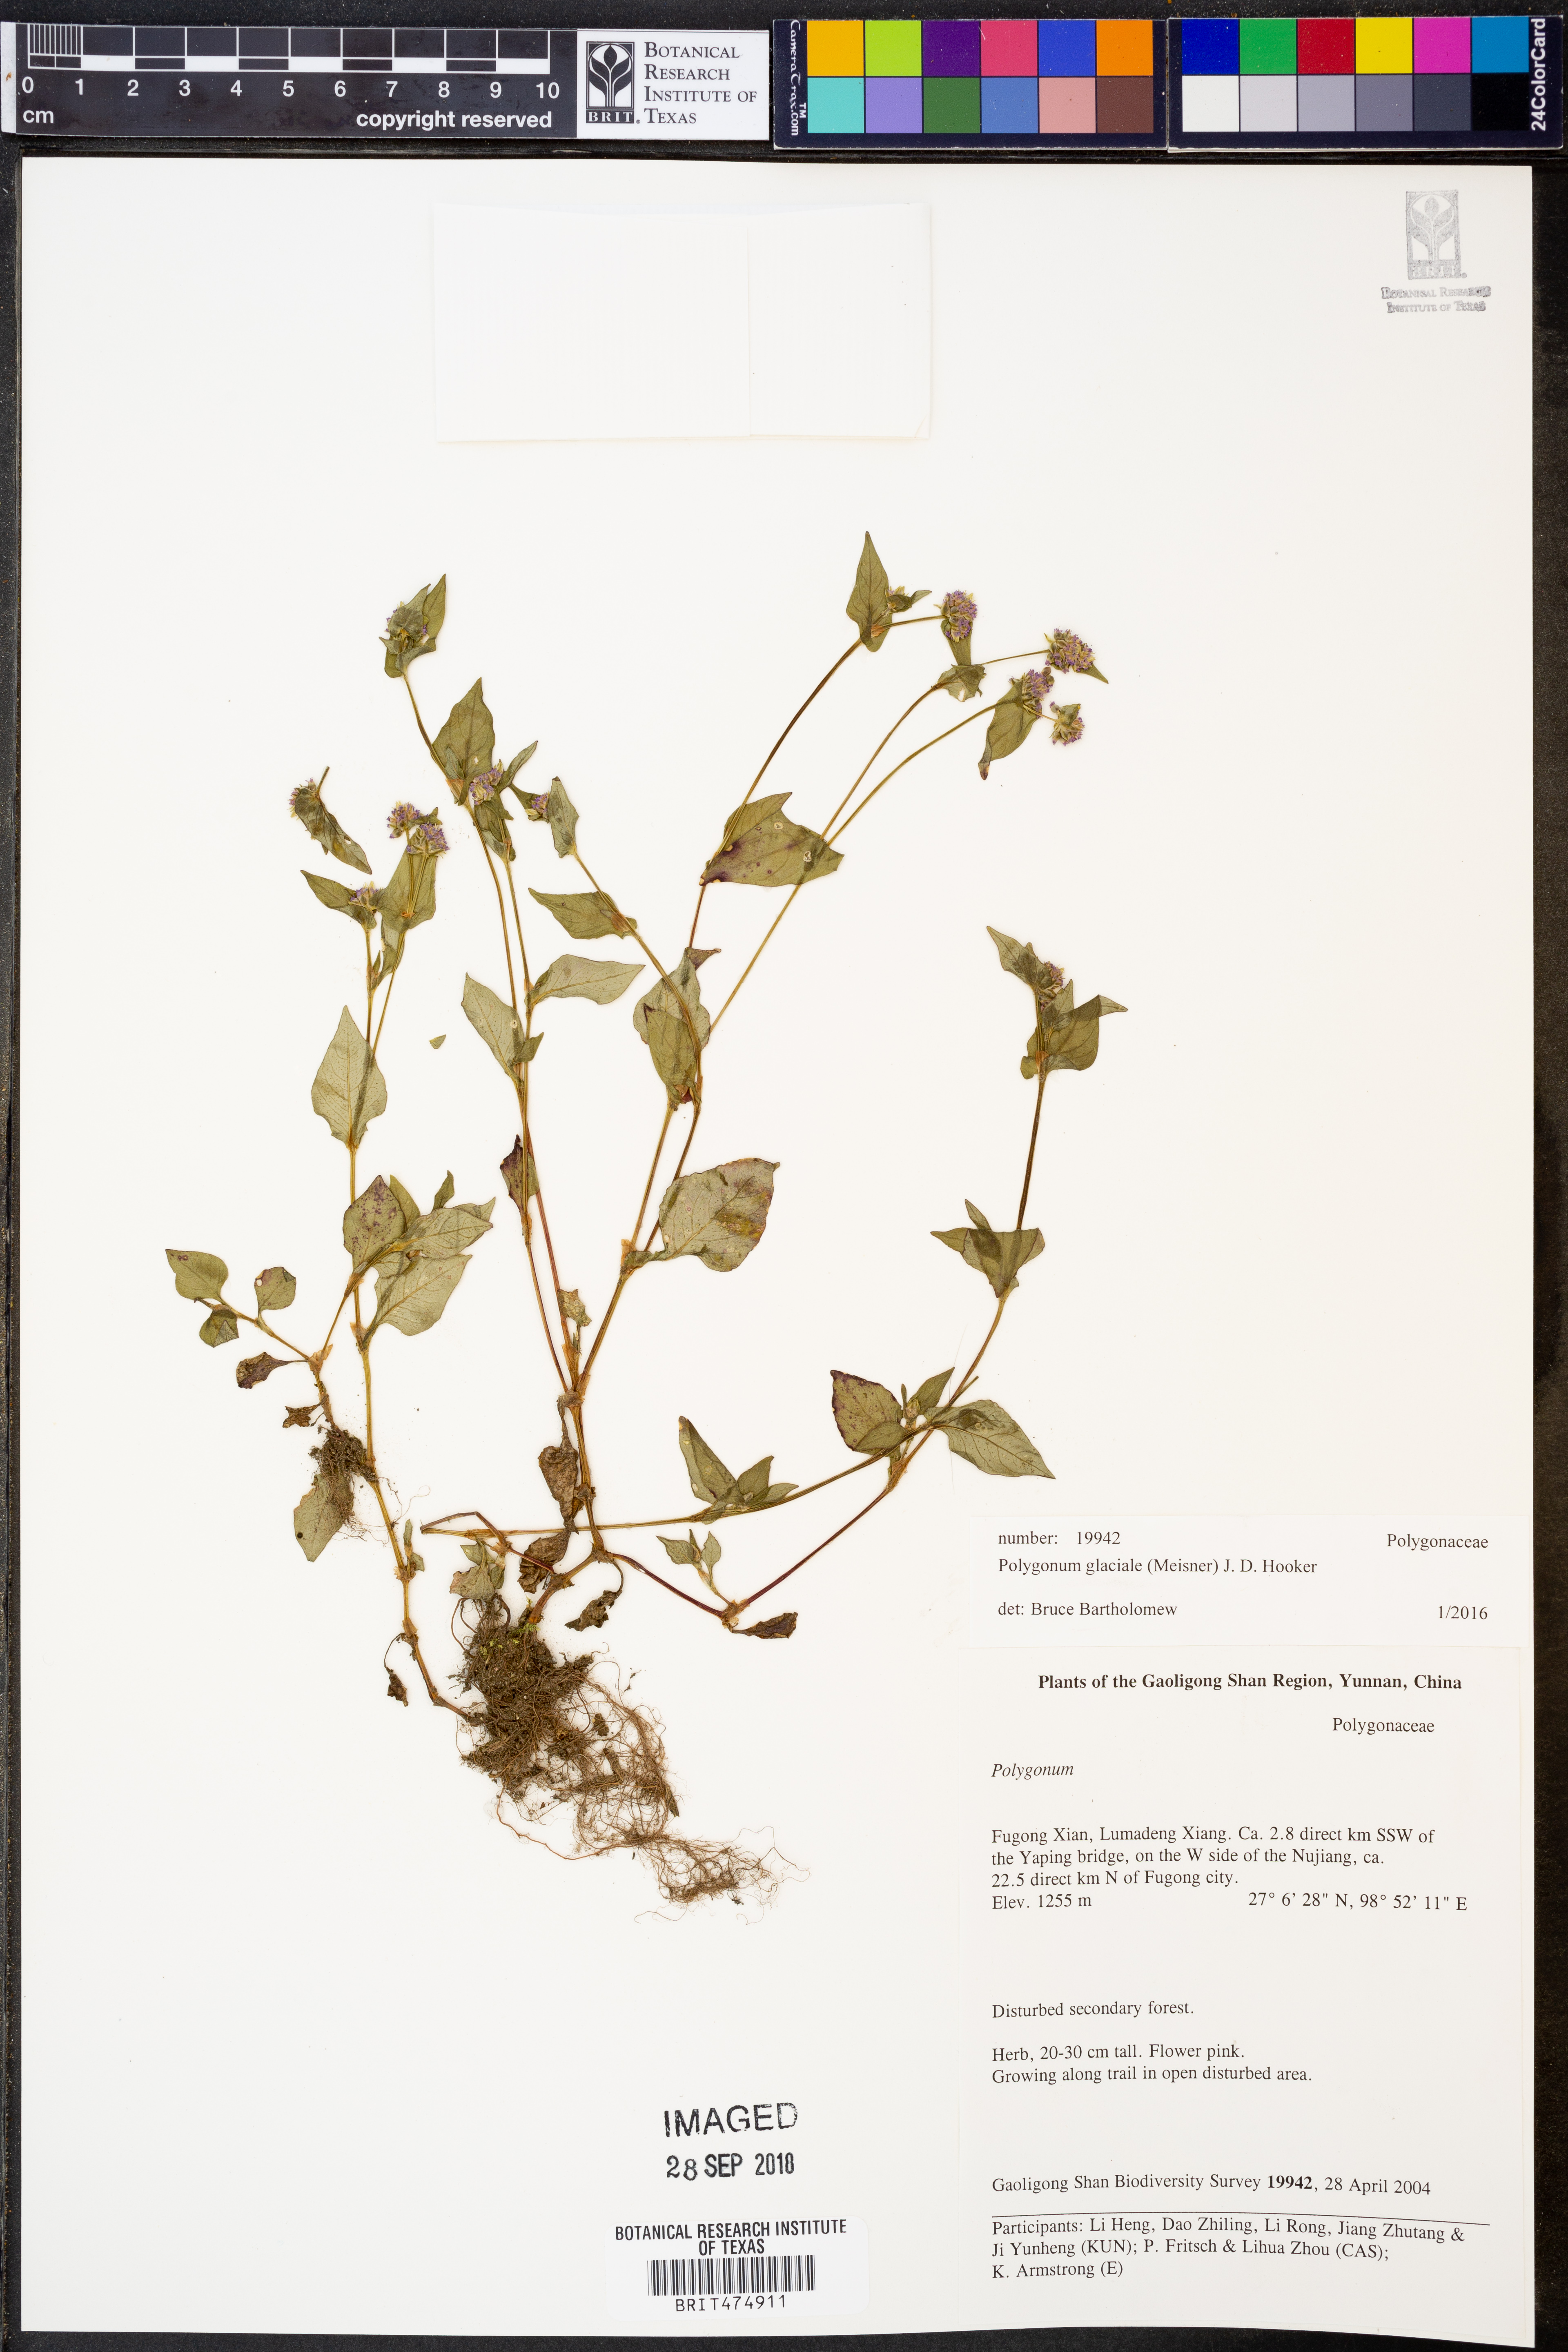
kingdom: Plantae
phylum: Tracheophyta
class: Magnoliopsida
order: Caryophyllales
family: Polygonaceae
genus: Persicaria
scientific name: Persicaria glacialis
